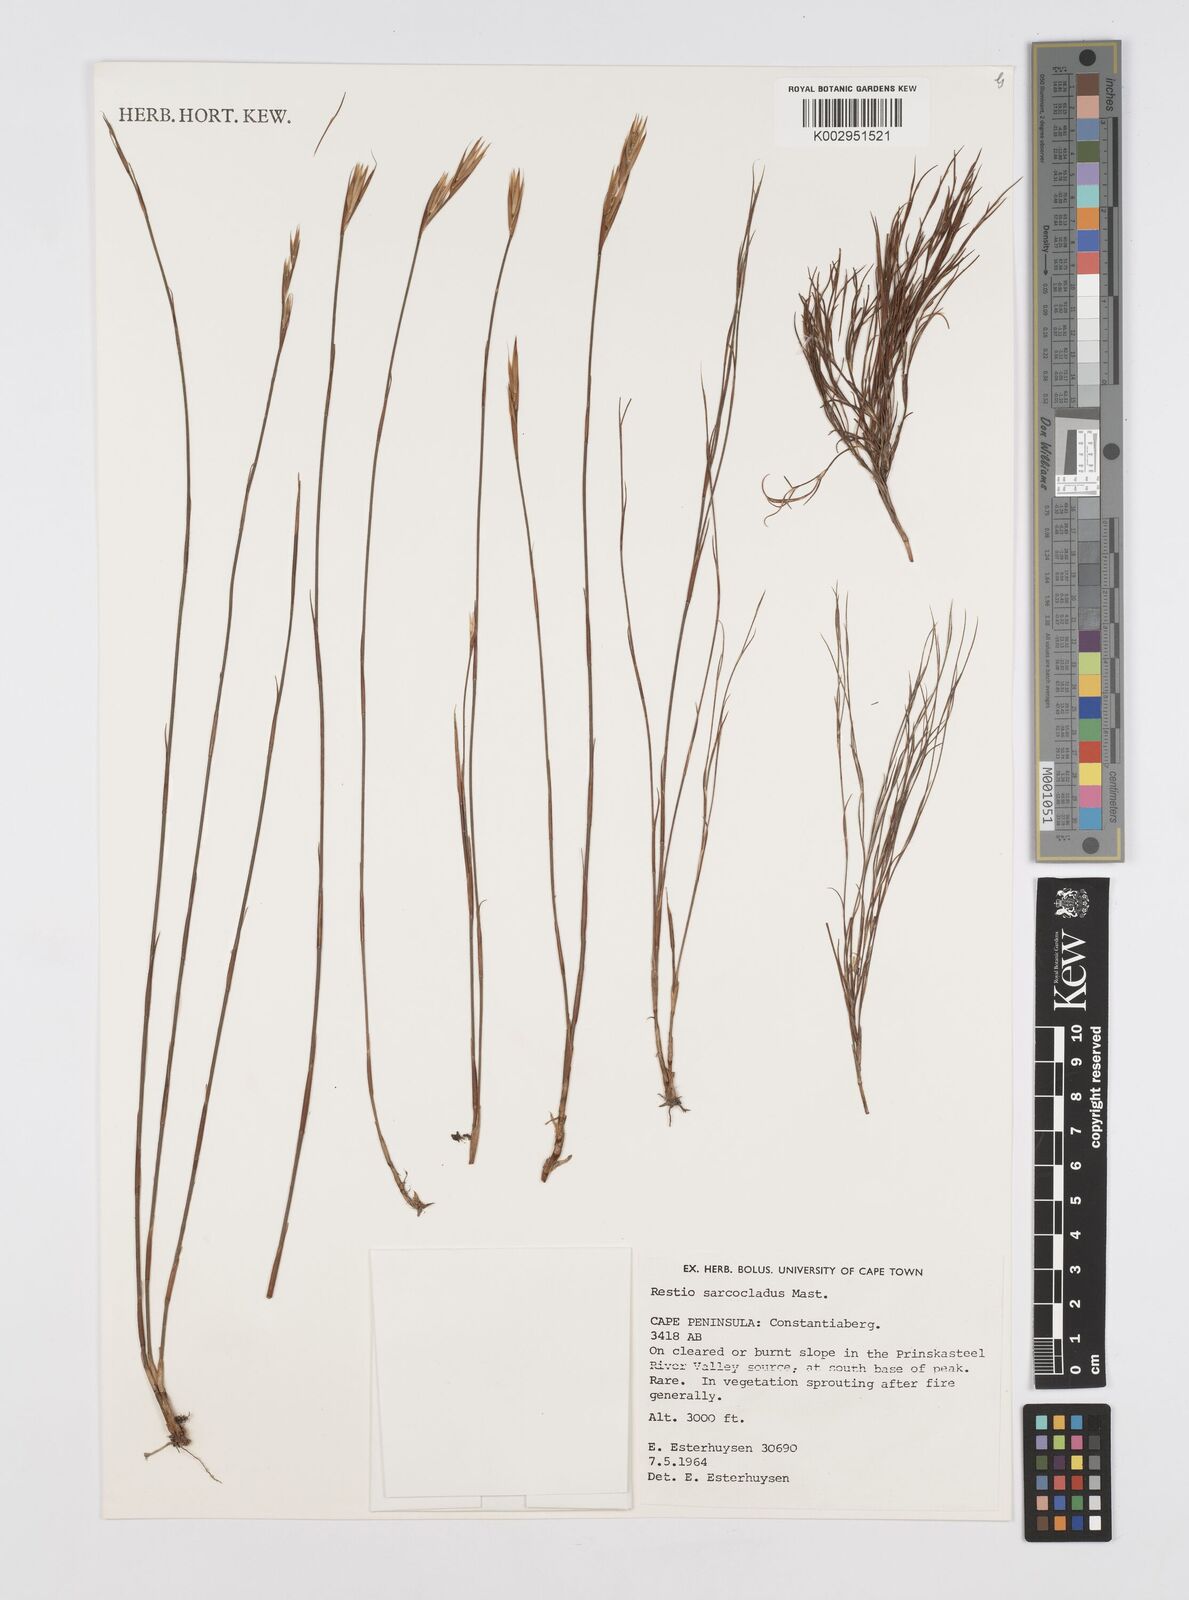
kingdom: Plantae
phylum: Tracheophyta
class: Liliopsida
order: Poales
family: Restionaceae
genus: Restio
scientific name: Restio saroclados
